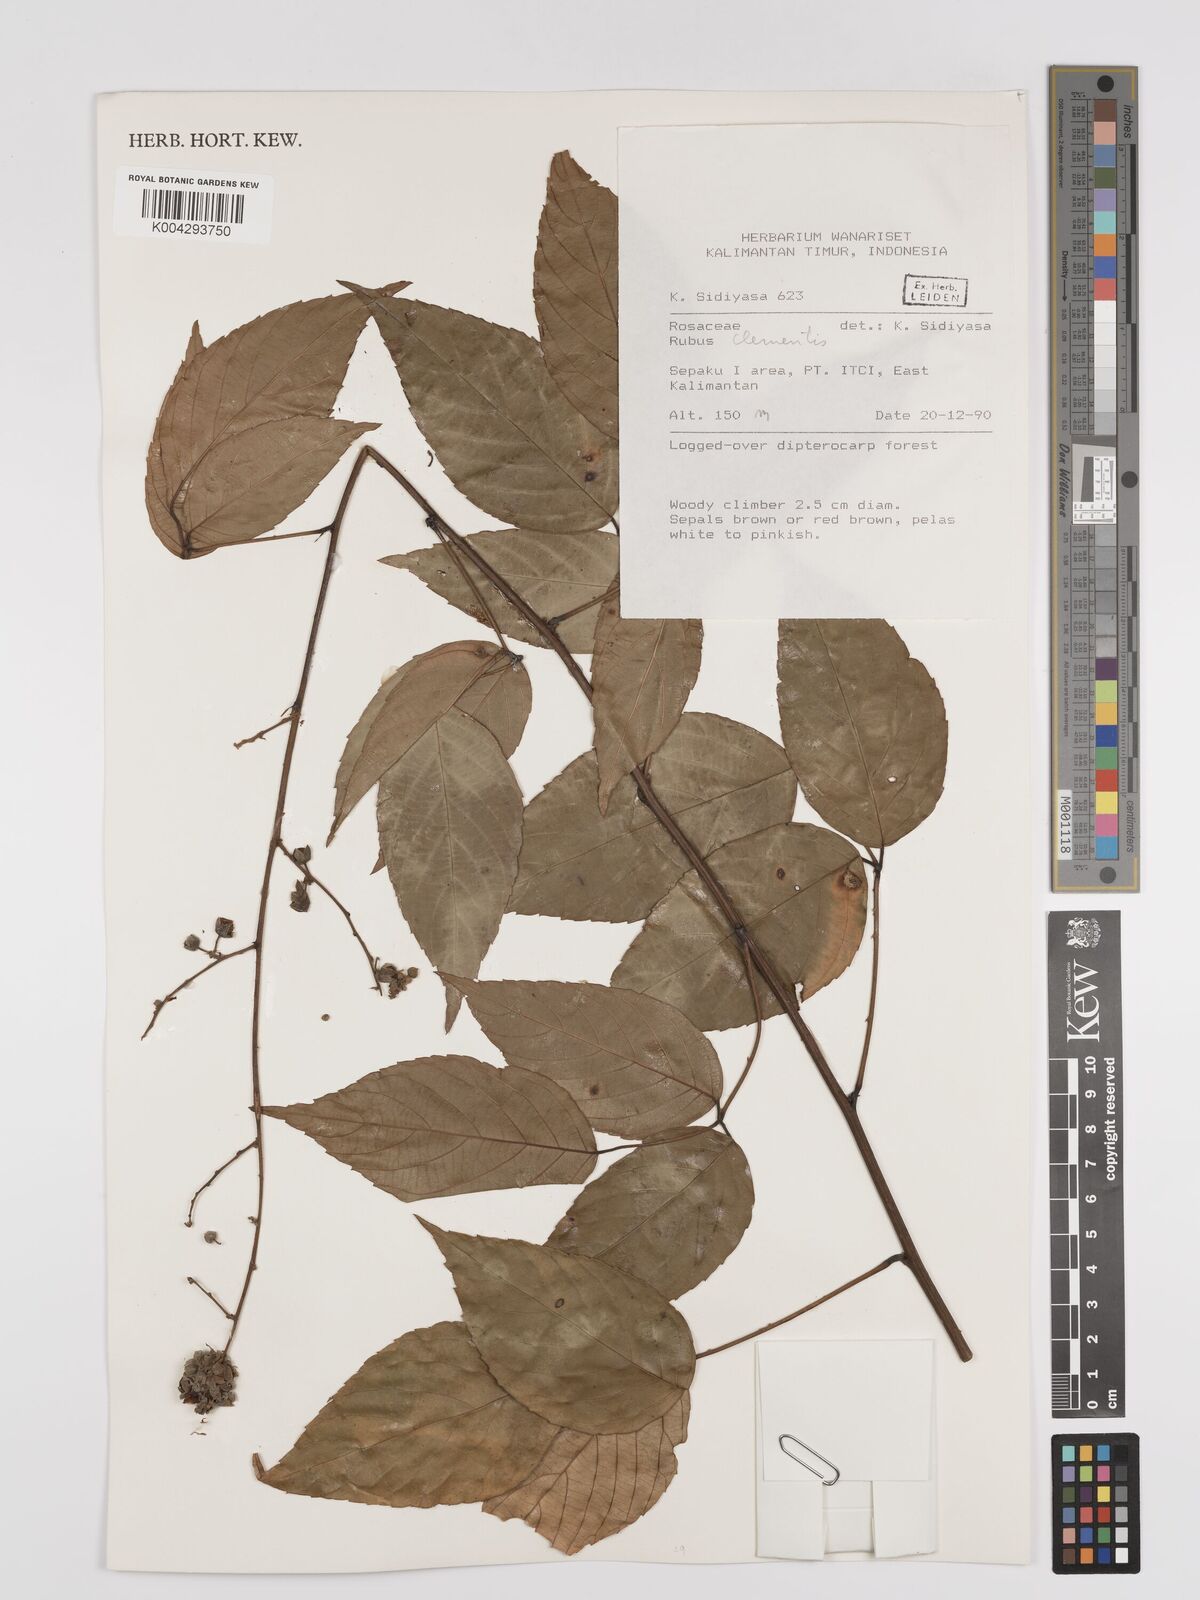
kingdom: Plantae
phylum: Tracheophyta
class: Magnoliopsida
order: Rosales
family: Rosaceae
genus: Rubus
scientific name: Rubus clementis
